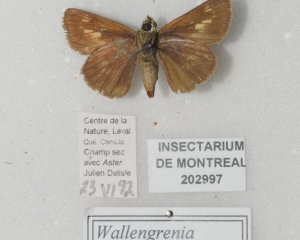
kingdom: Animalia
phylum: Arthropoda
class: Insecta
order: Lepidoptera
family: Hesperiidae
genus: Polites
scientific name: Polites egeremet
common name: Northern Broken-Dash
